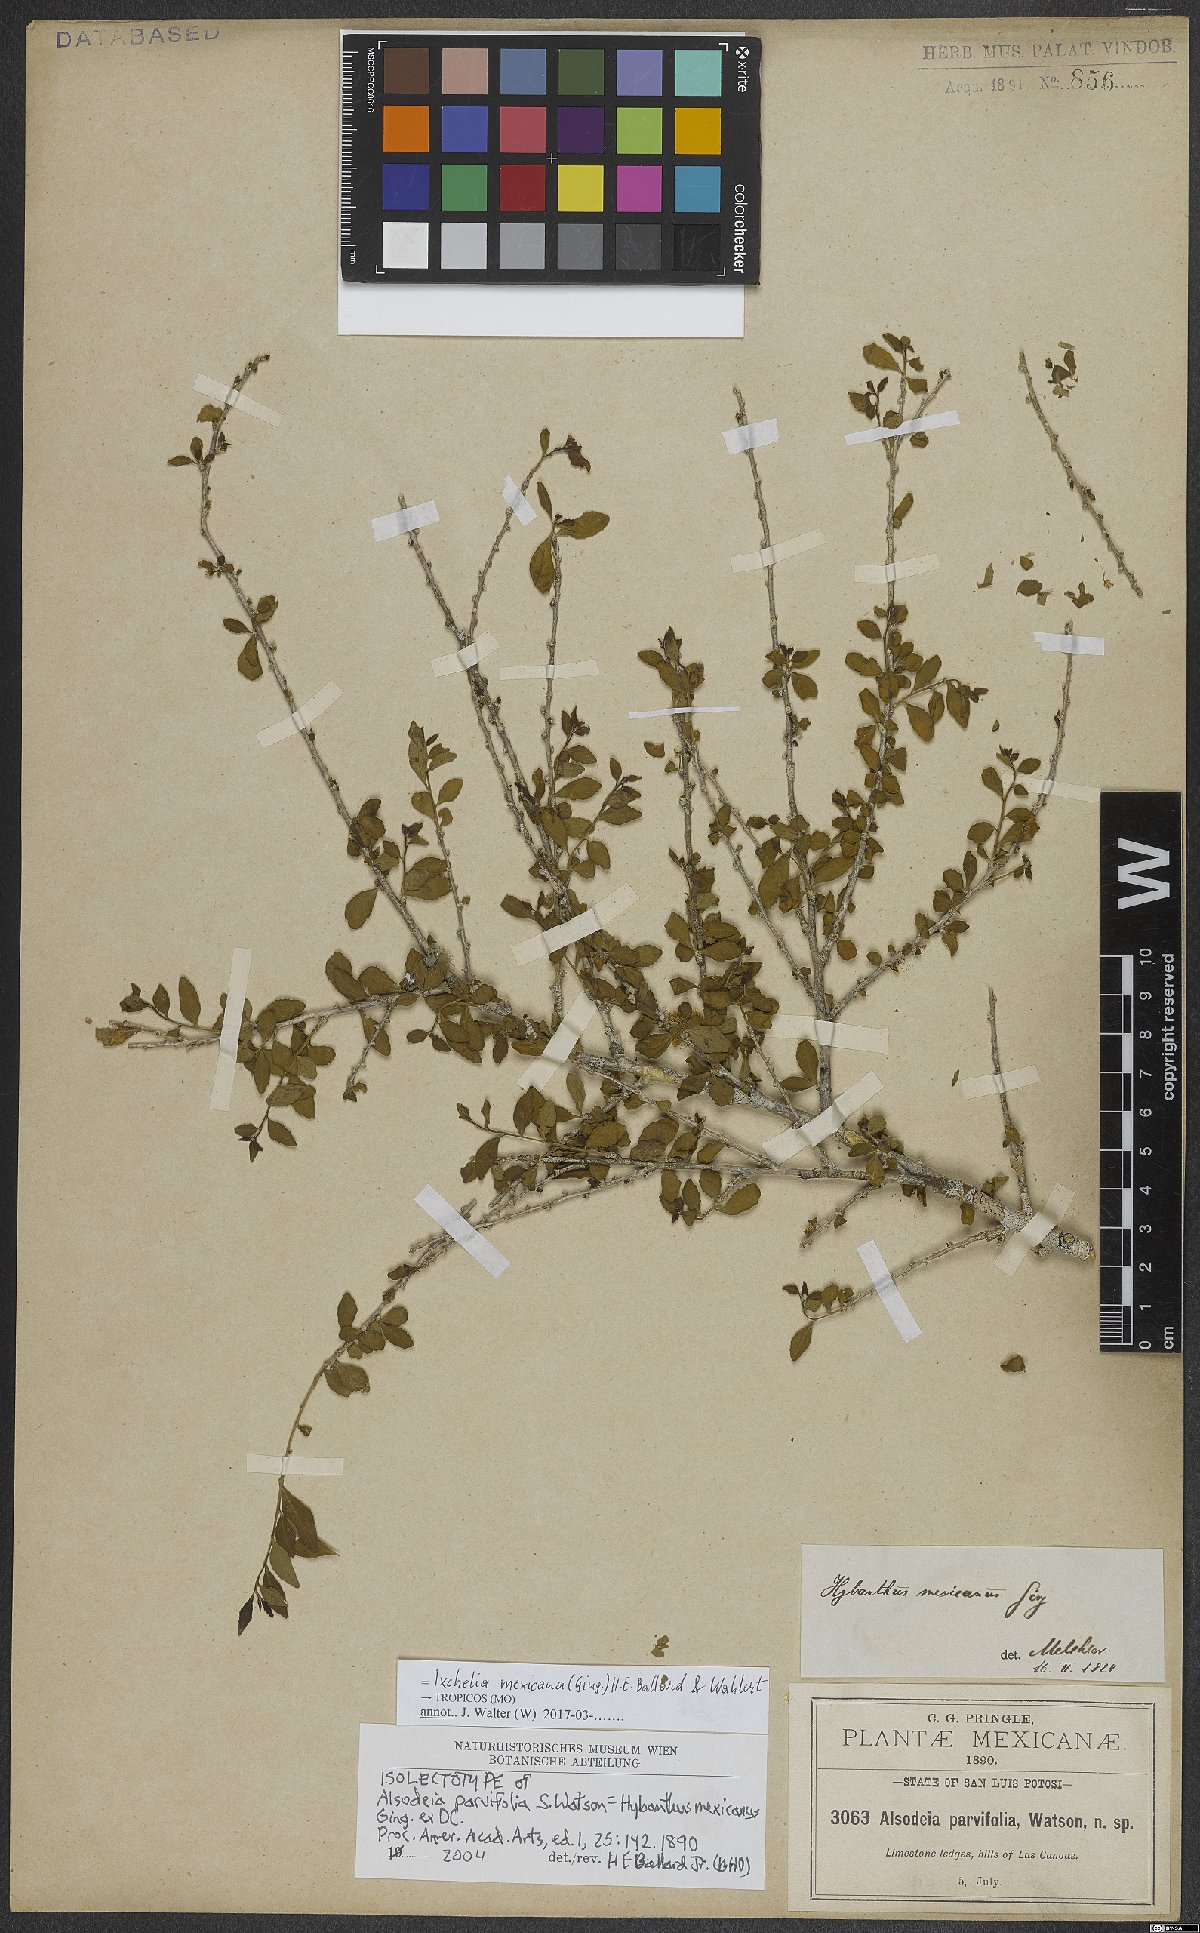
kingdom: Plantae
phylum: Tracheophyta
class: Magnoliopsida
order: Malpighiales
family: Violaceae
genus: Ixchelia
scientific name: Ixchelia mexicana
